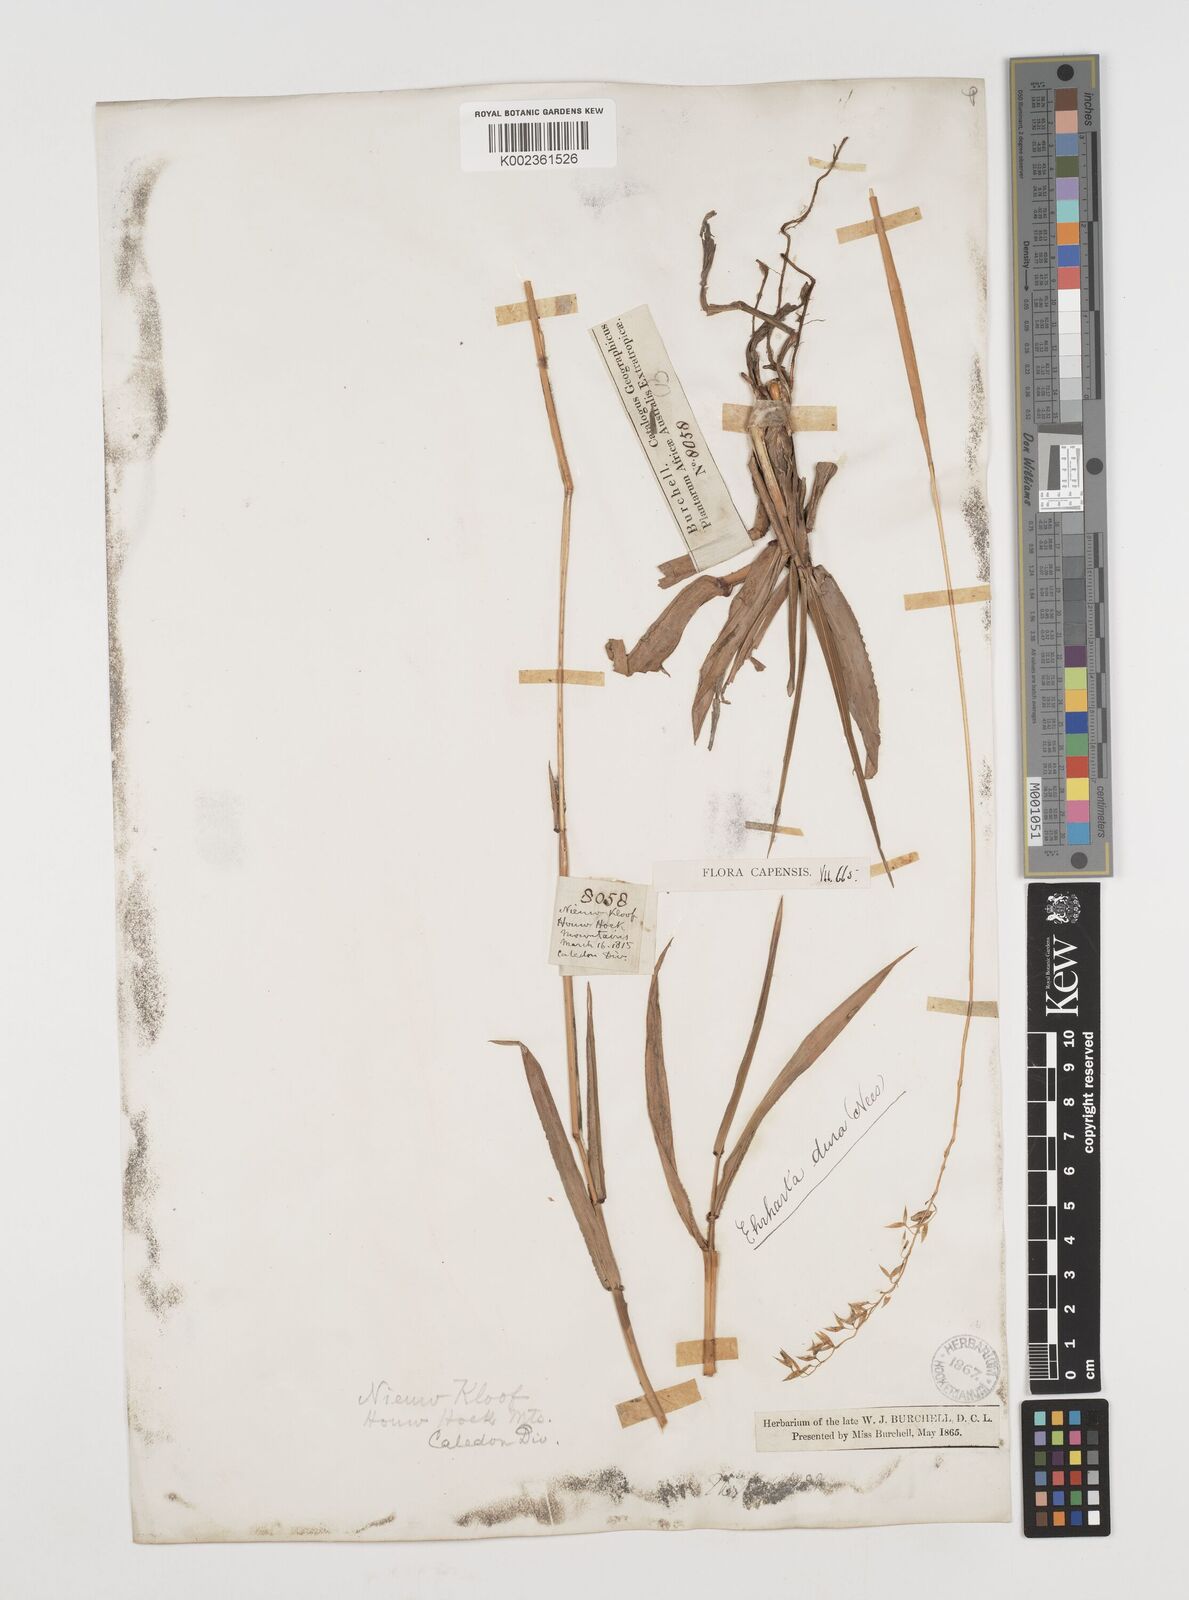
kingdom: Plantae
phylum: Tracheophyta
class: Liliopsida
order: Poales
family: Poaceae
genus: Ehrharta
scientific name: Ehrharta capensis
